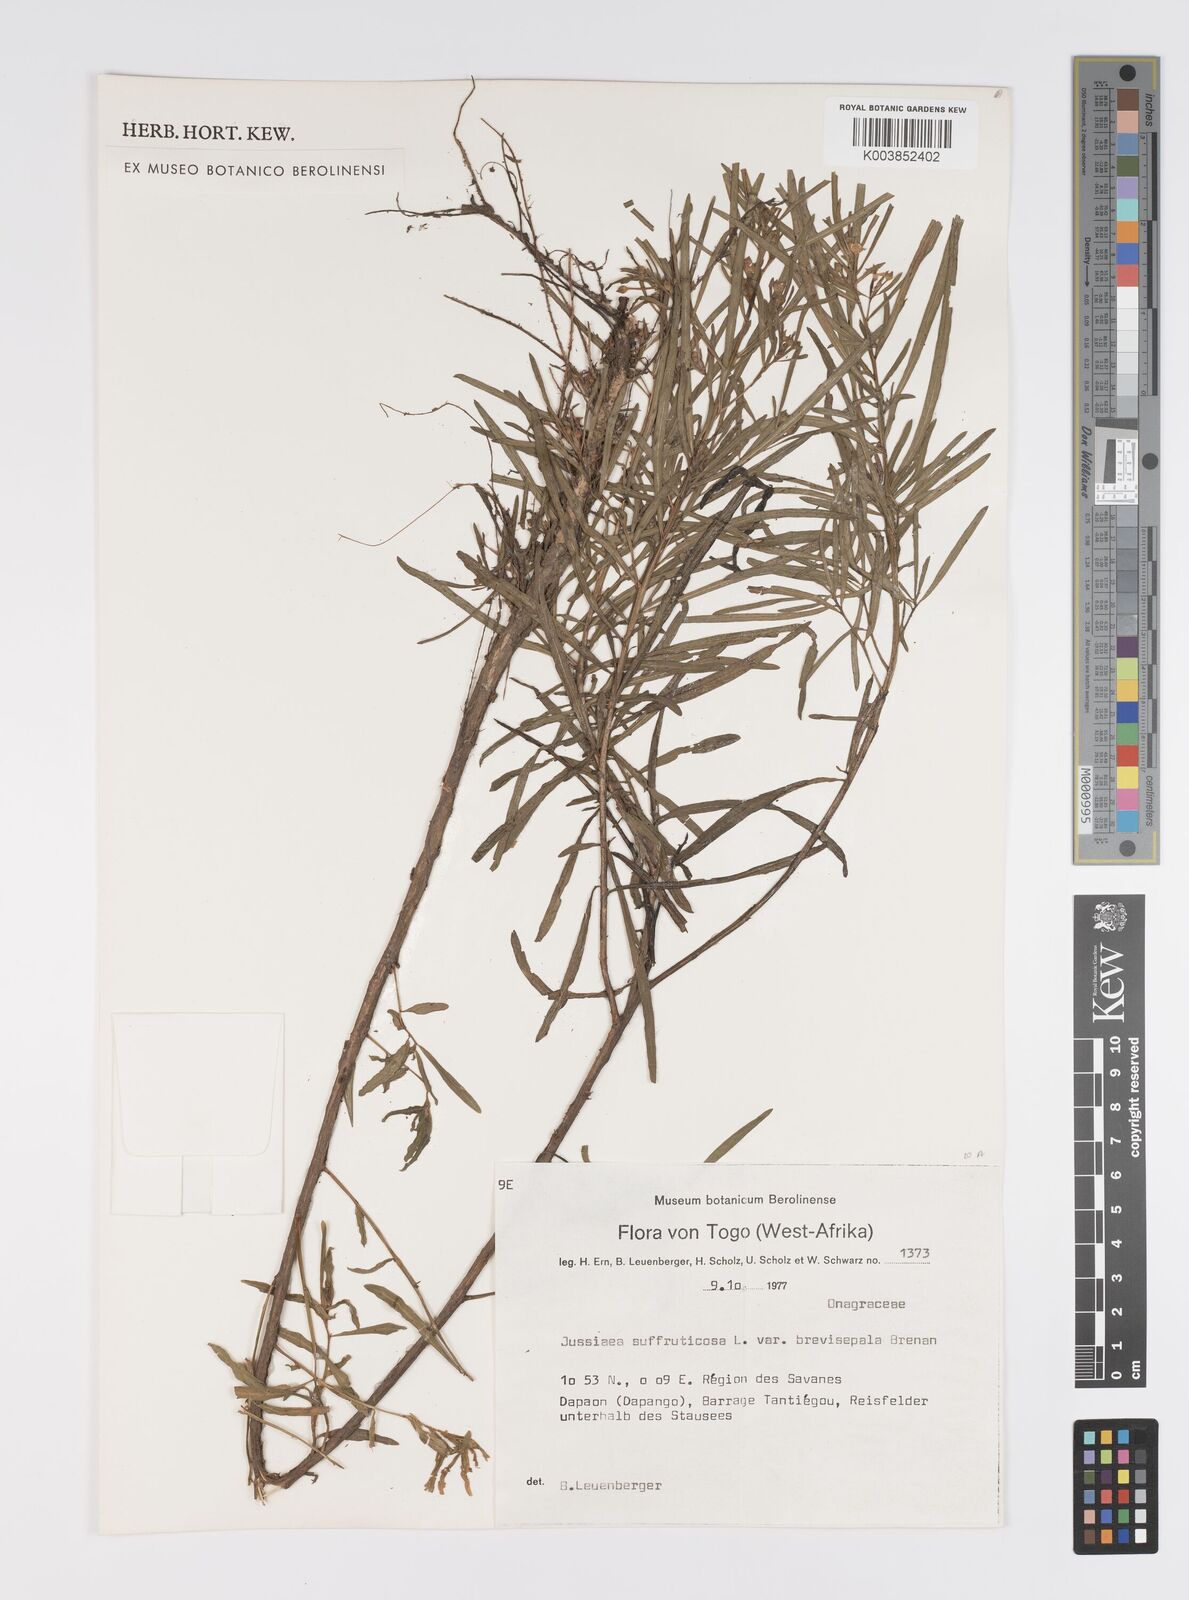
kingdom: Plantae
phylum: Tracheophyta
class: Magnoliopsida
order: Myrtales
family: Onagraceae
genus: Ludwigia
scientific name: Ludwigia
